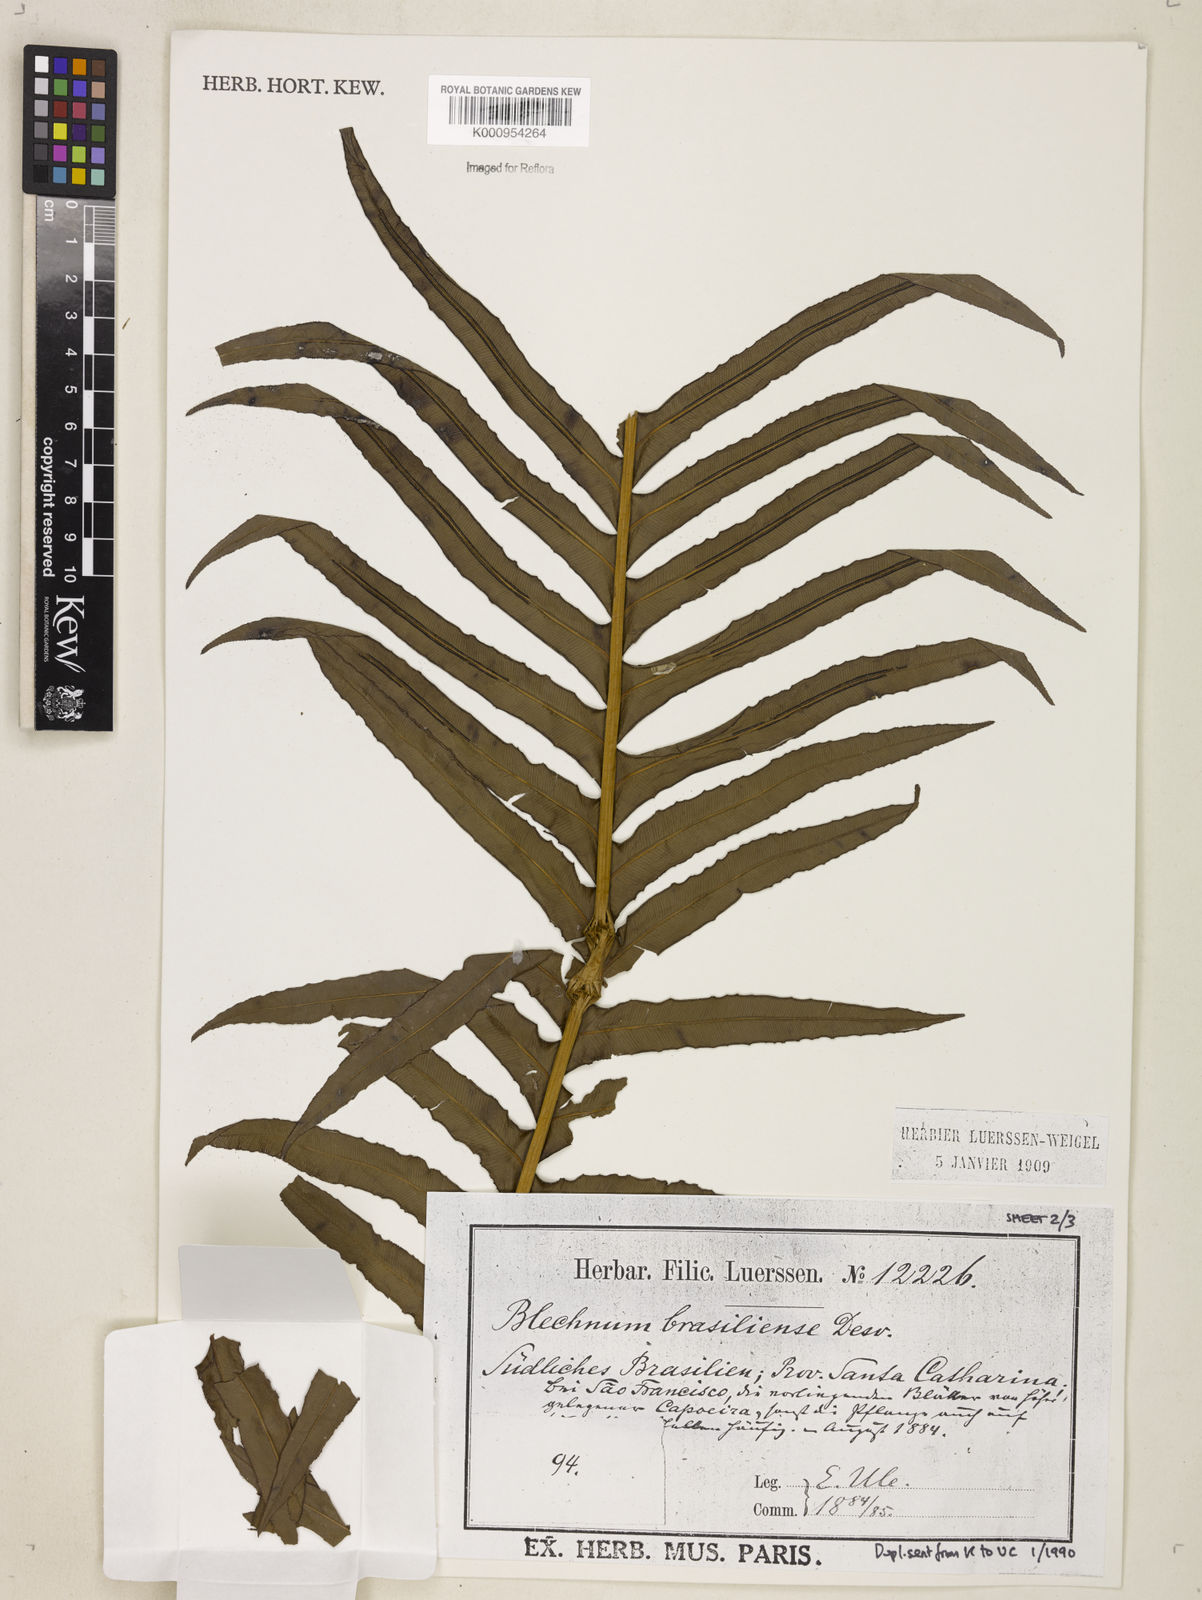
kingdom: Plantae
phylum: Tracheophyta
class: Polypodiopsida
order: Polypodiales
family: Blechnaceae
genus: Neoblechnum
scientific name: Neoblechnum brasiliense
